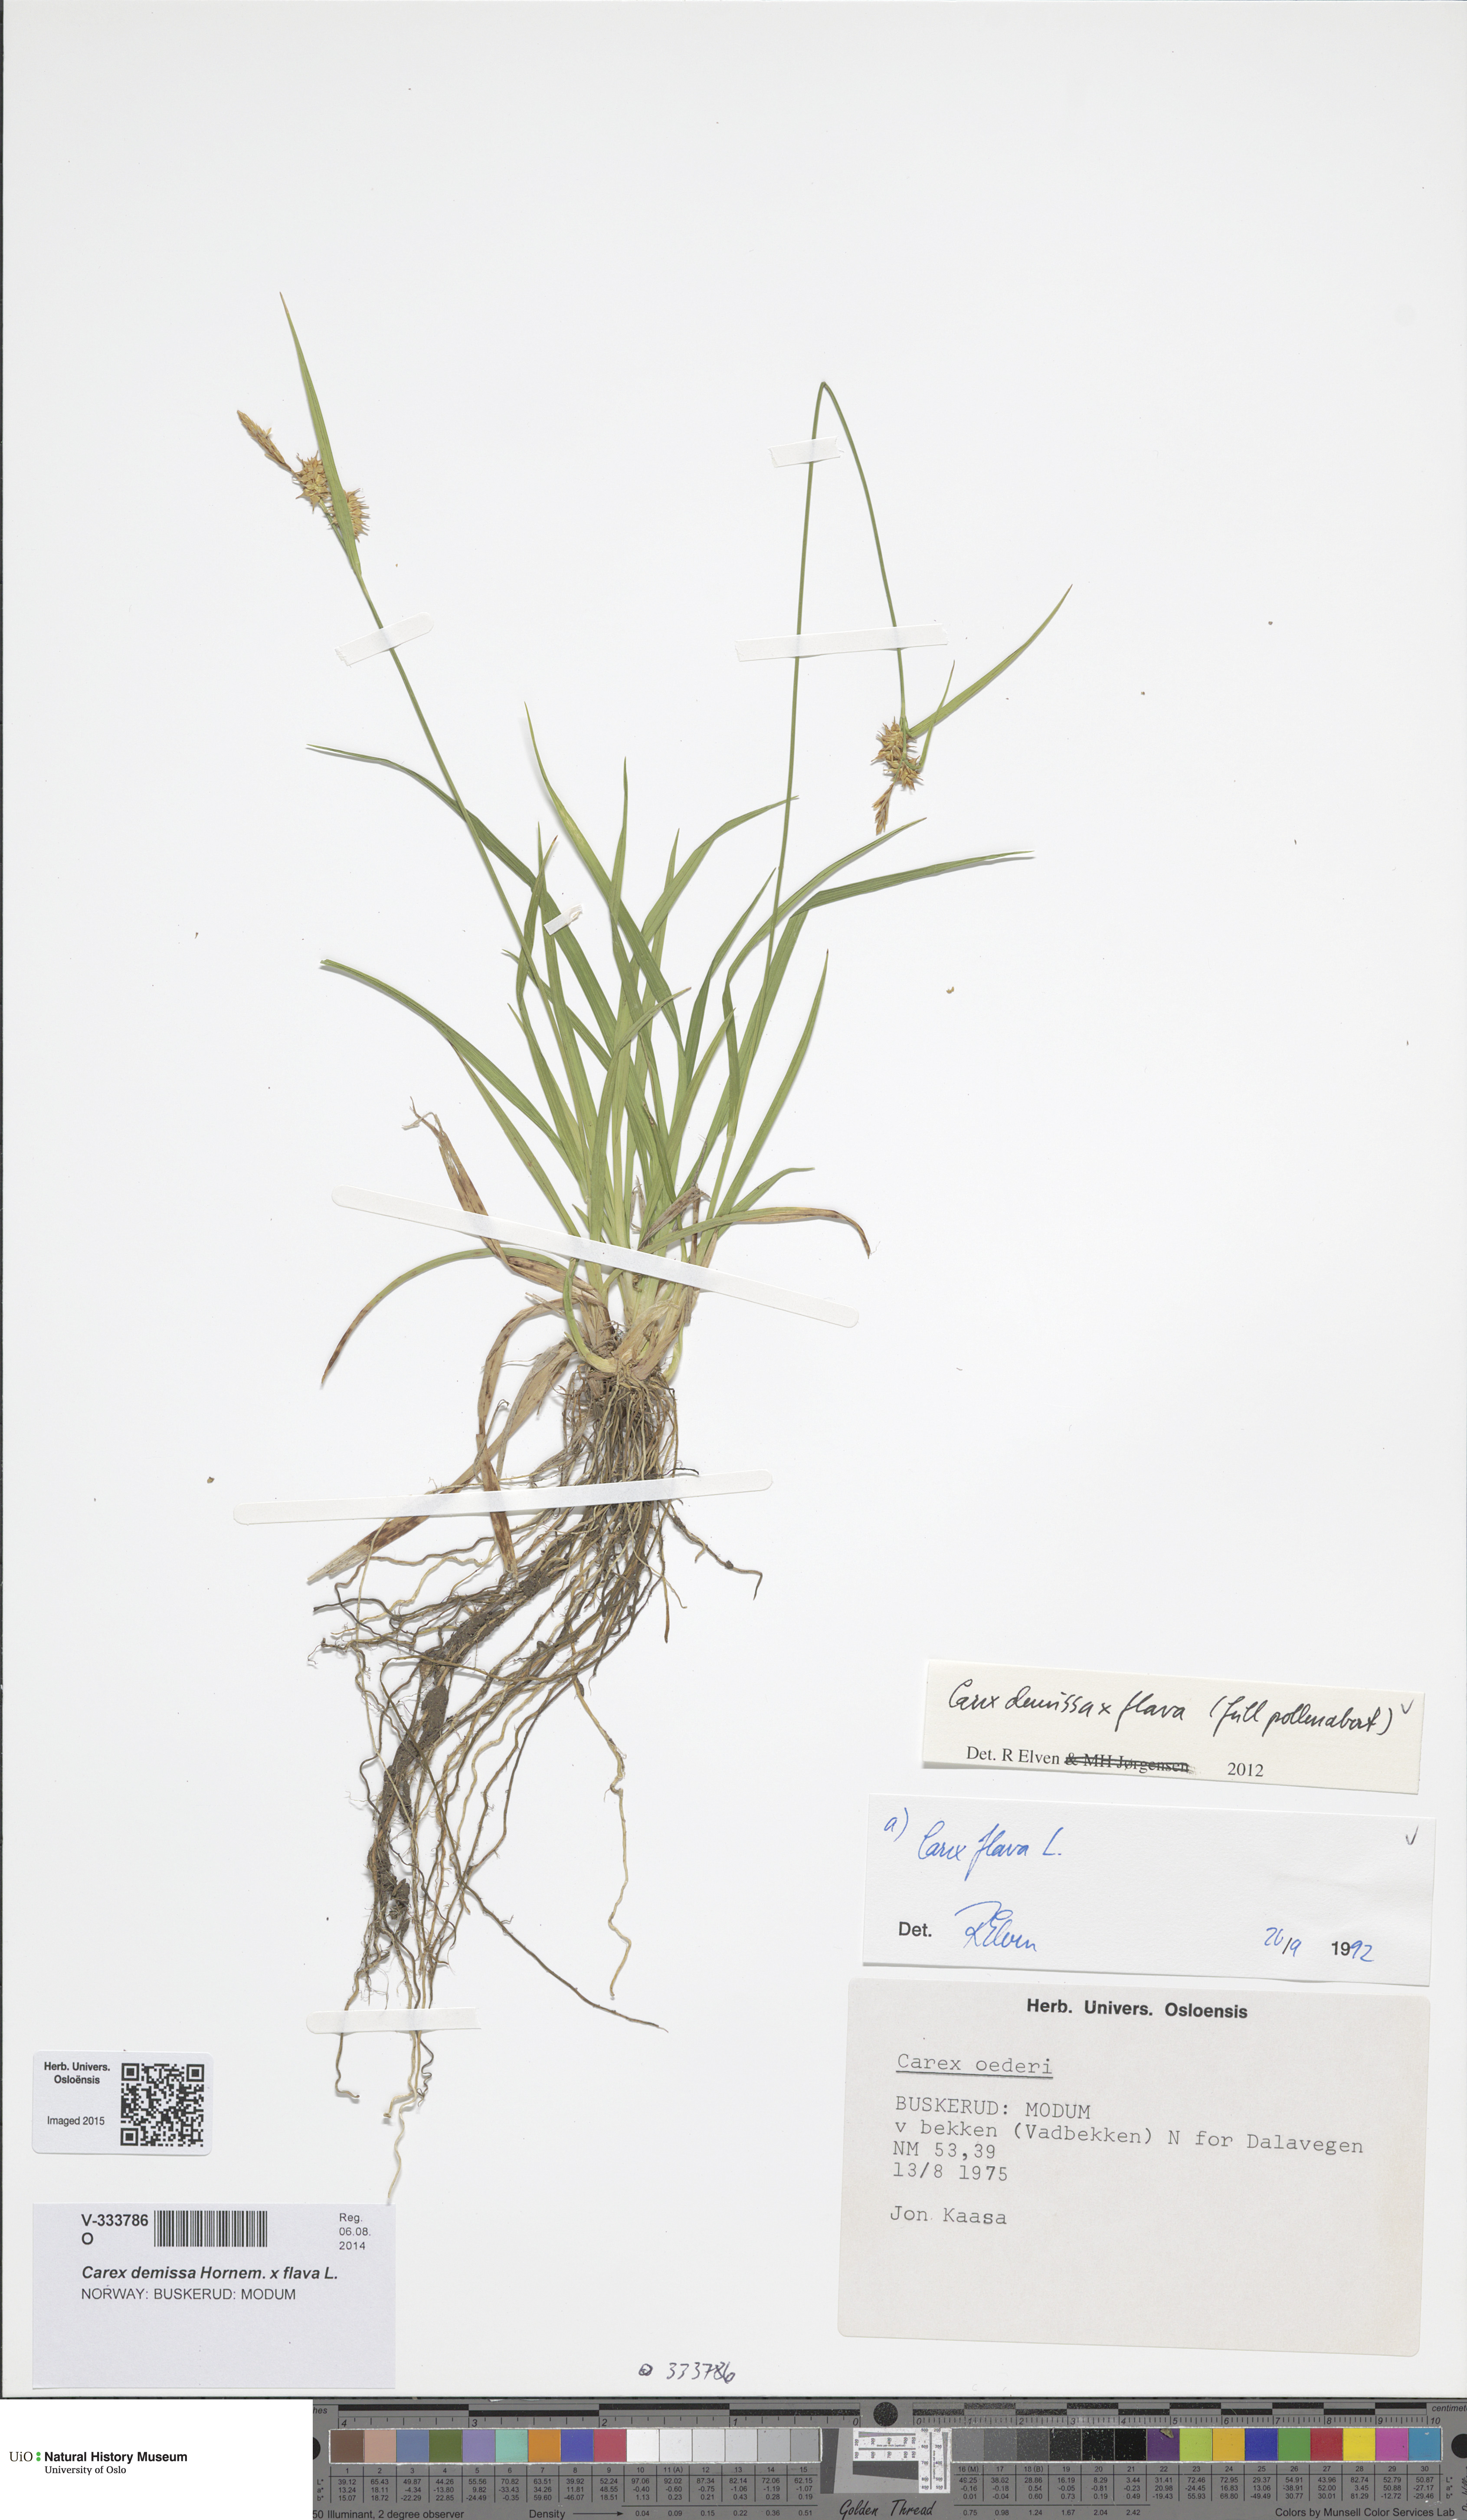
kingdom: Plantae
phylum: Tracheophyta
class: Liliopsida
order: Poales
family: Cyperaceae
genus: Carex
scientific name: Carex
